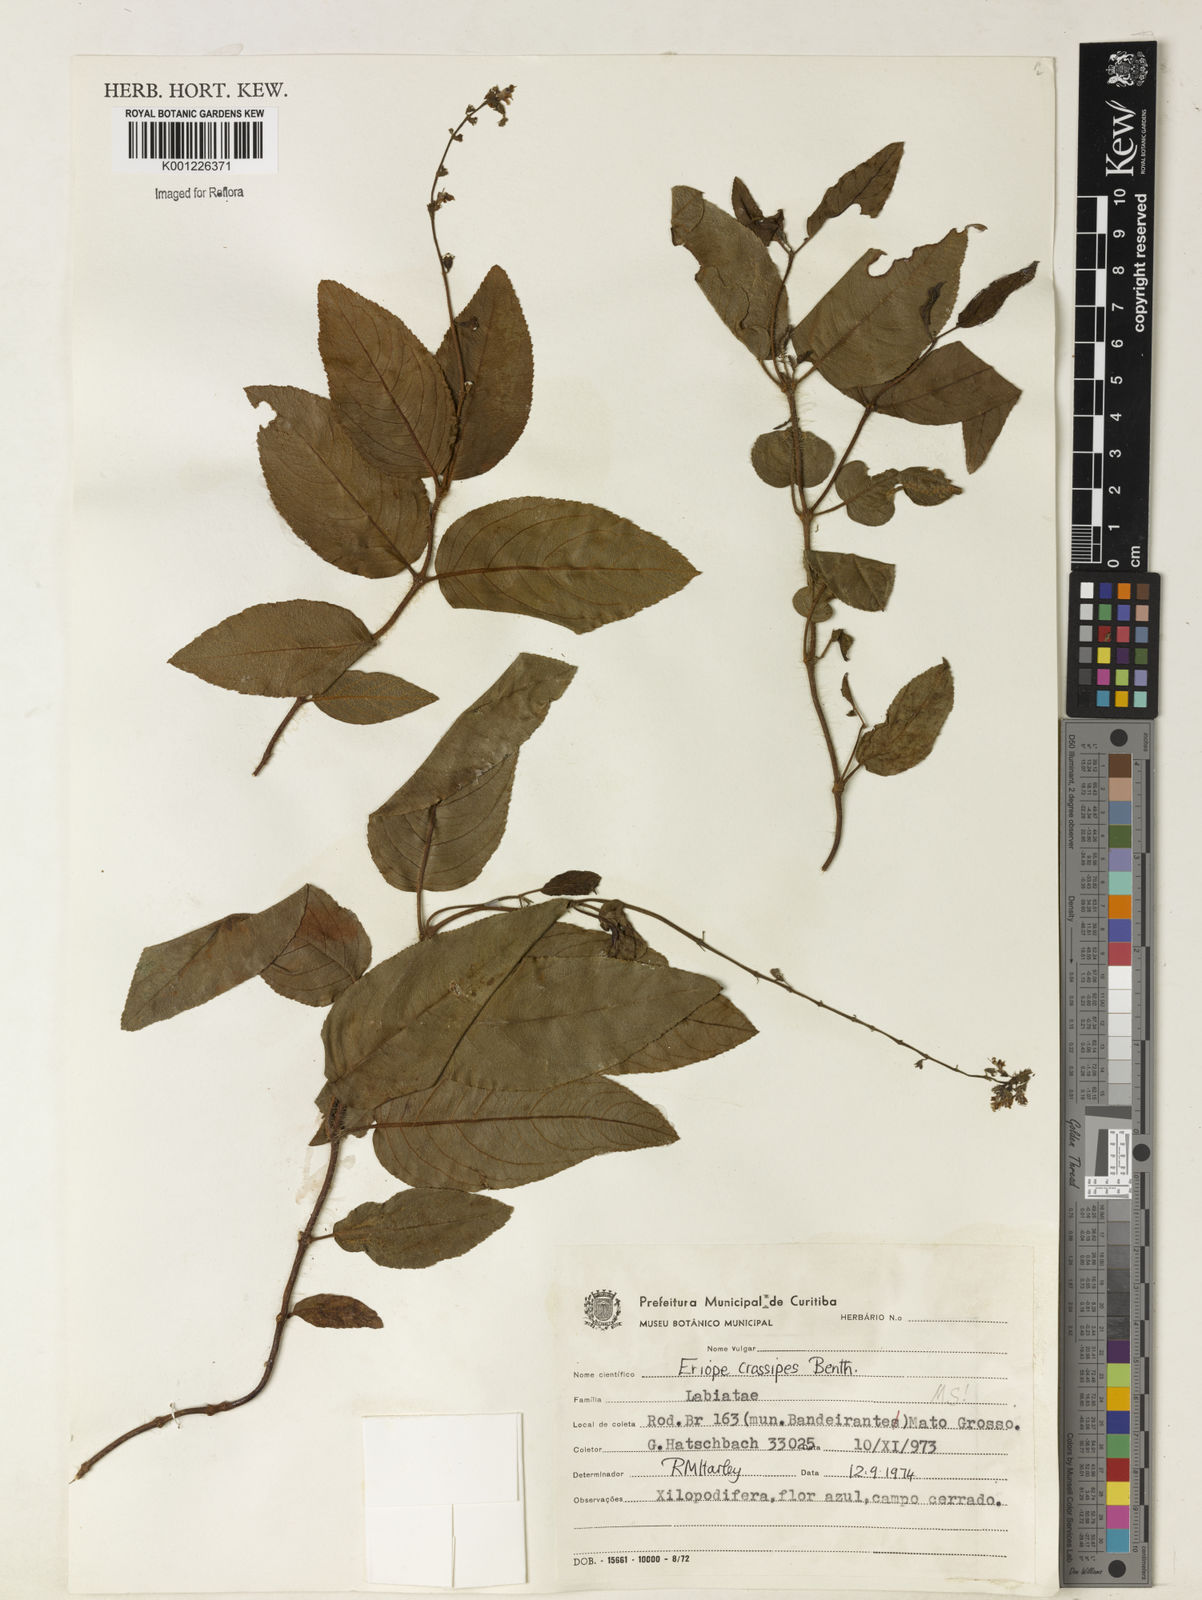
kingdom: Plantae
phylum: Tracheophyta
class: Magnoliopsida
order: Lamiales
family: Lamiaceae
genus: Eriope
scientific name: Eriope crassipes
